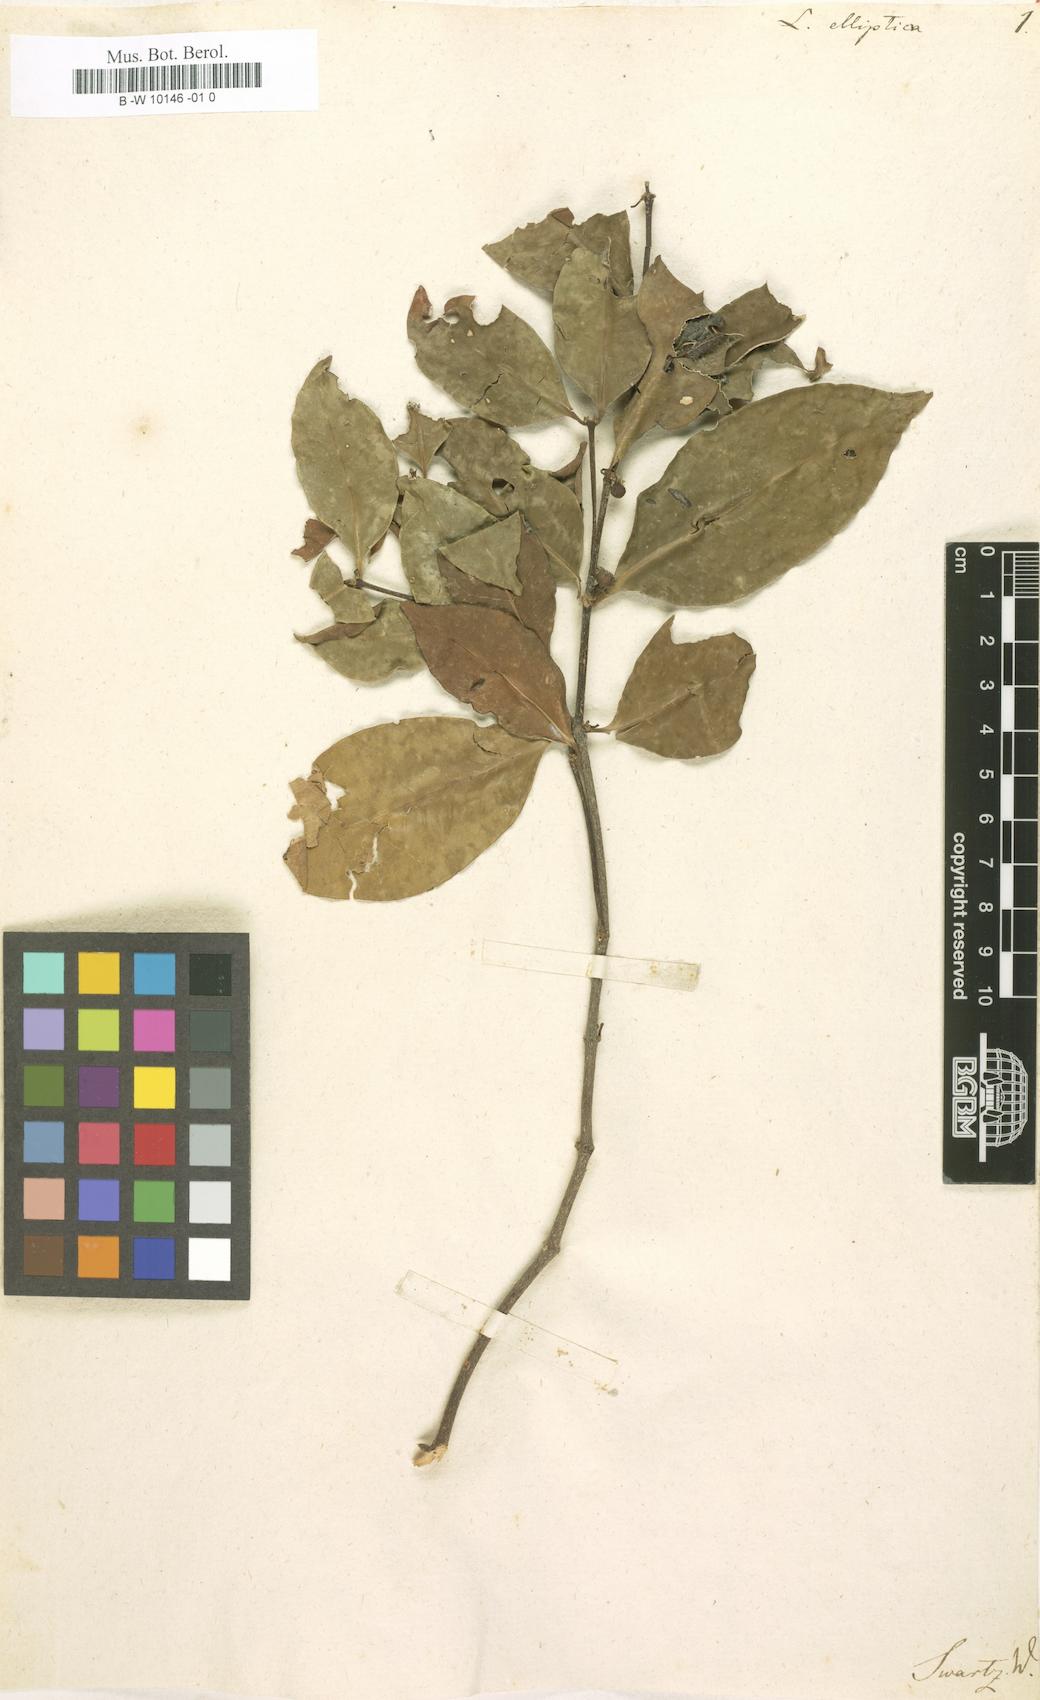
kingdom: Plantae
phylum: Tracheophyta
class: Magnoliopsida
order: Malpighiales
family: Rhizophoraceae
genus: Cassipourea
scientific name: Cassipourea elliptica
